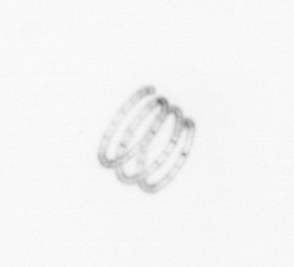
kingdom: Chromista
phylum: Ochrophyta
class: Bacillariophyceae
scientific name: Bacillariophyceae
